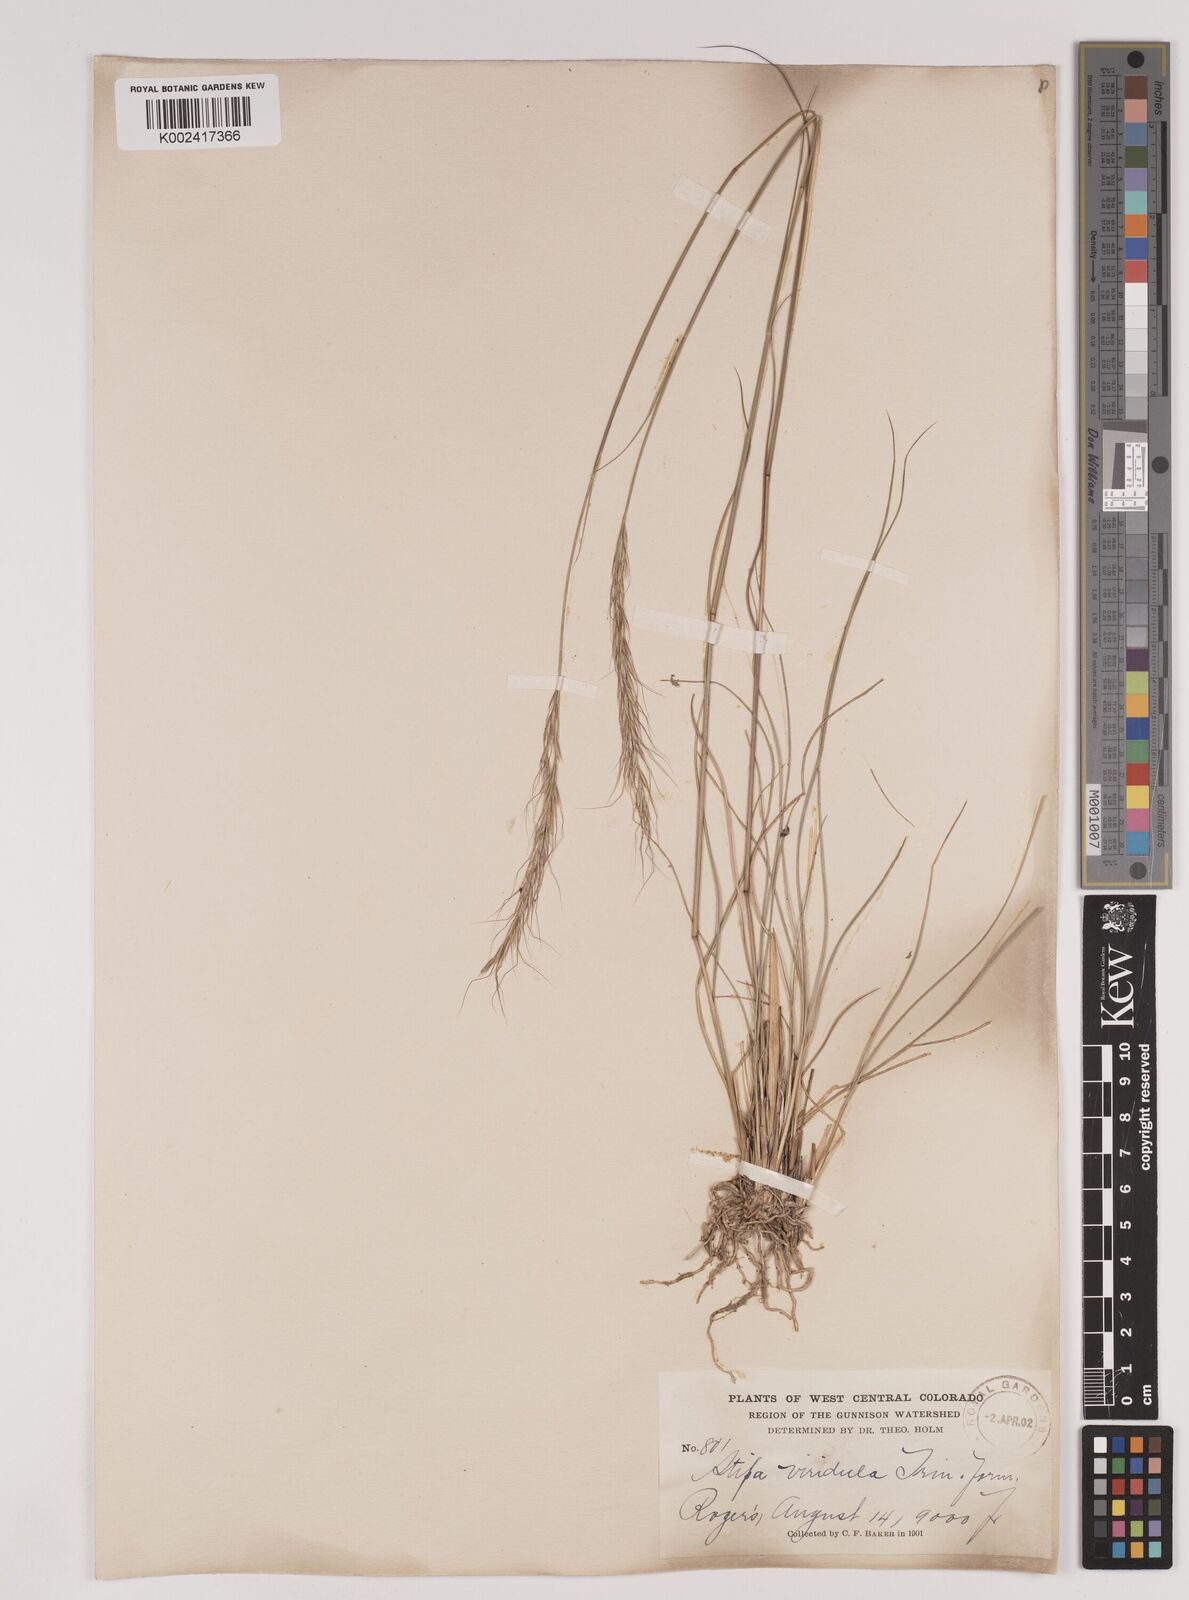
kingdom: Plantae
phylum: Tracheophyta
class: Liliopsida
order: Poales
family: Poaceae
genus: Nassella
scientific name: Nassella viridula
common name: Green needlegrass
